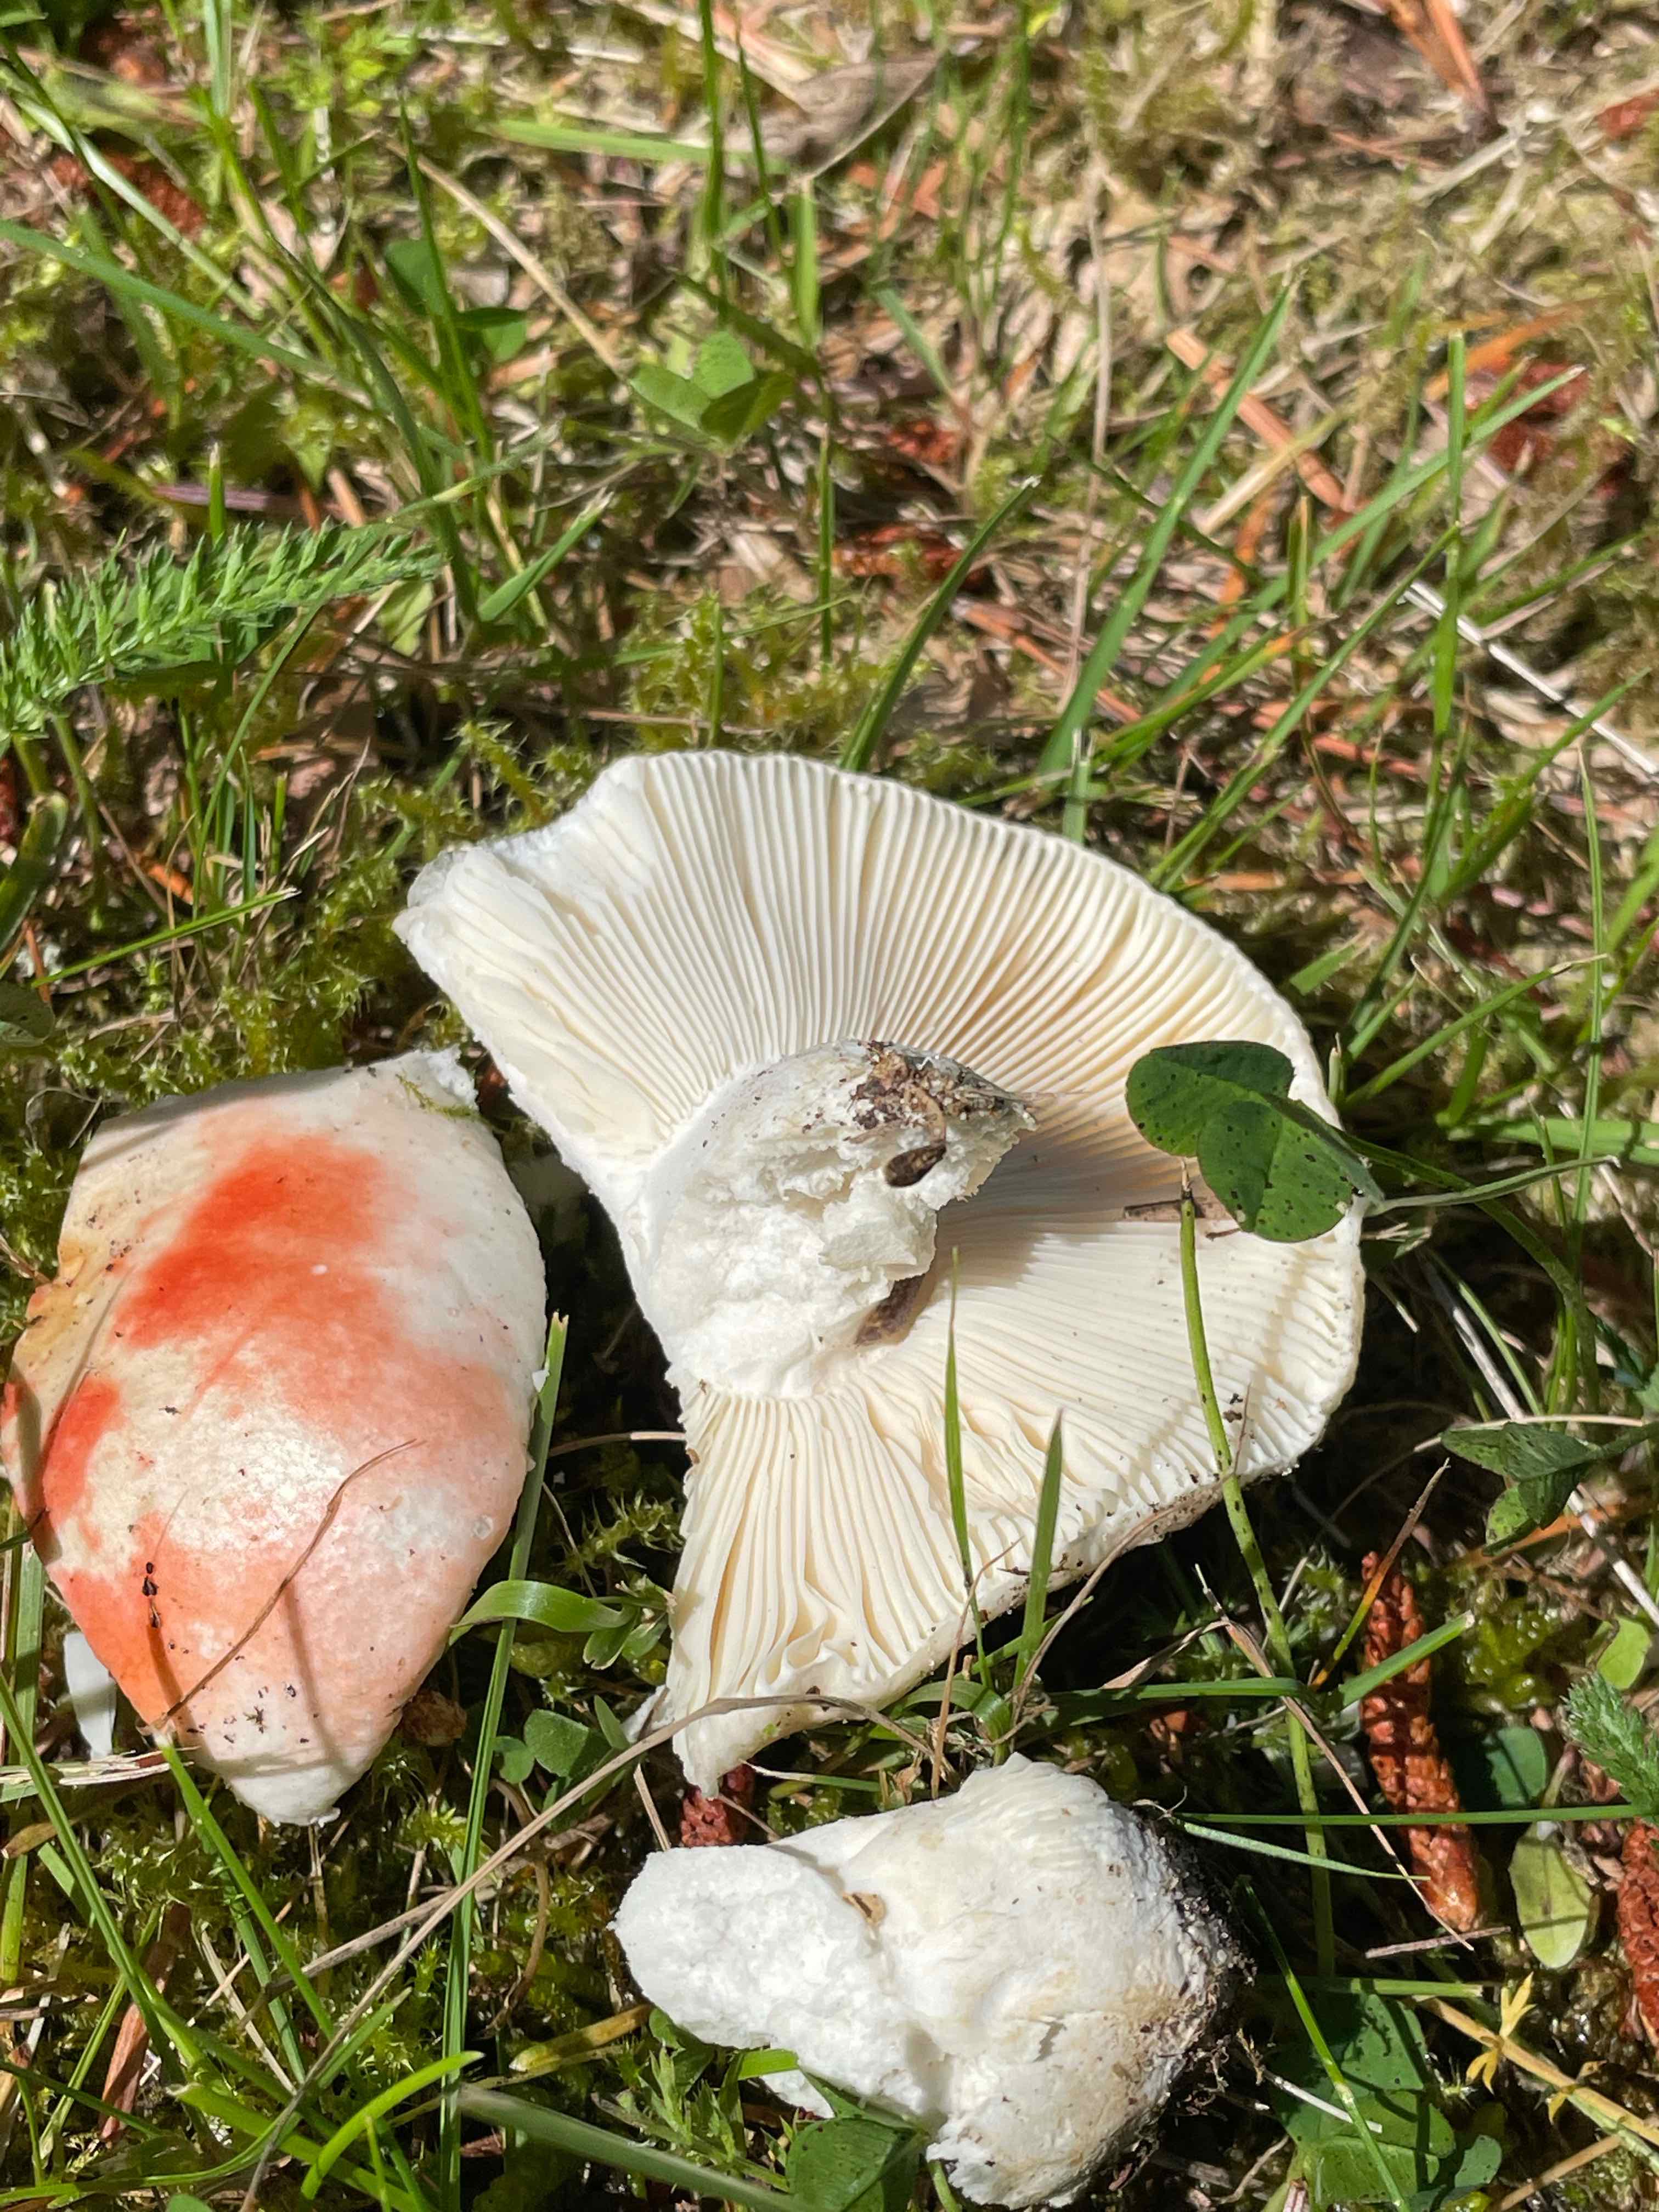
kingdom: Fungi
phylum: Basidiomycota
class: Agaricomycetes
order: Russulales
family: Russulaceae
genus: Russula
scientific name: Russula depallens
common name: falmende skørhat
